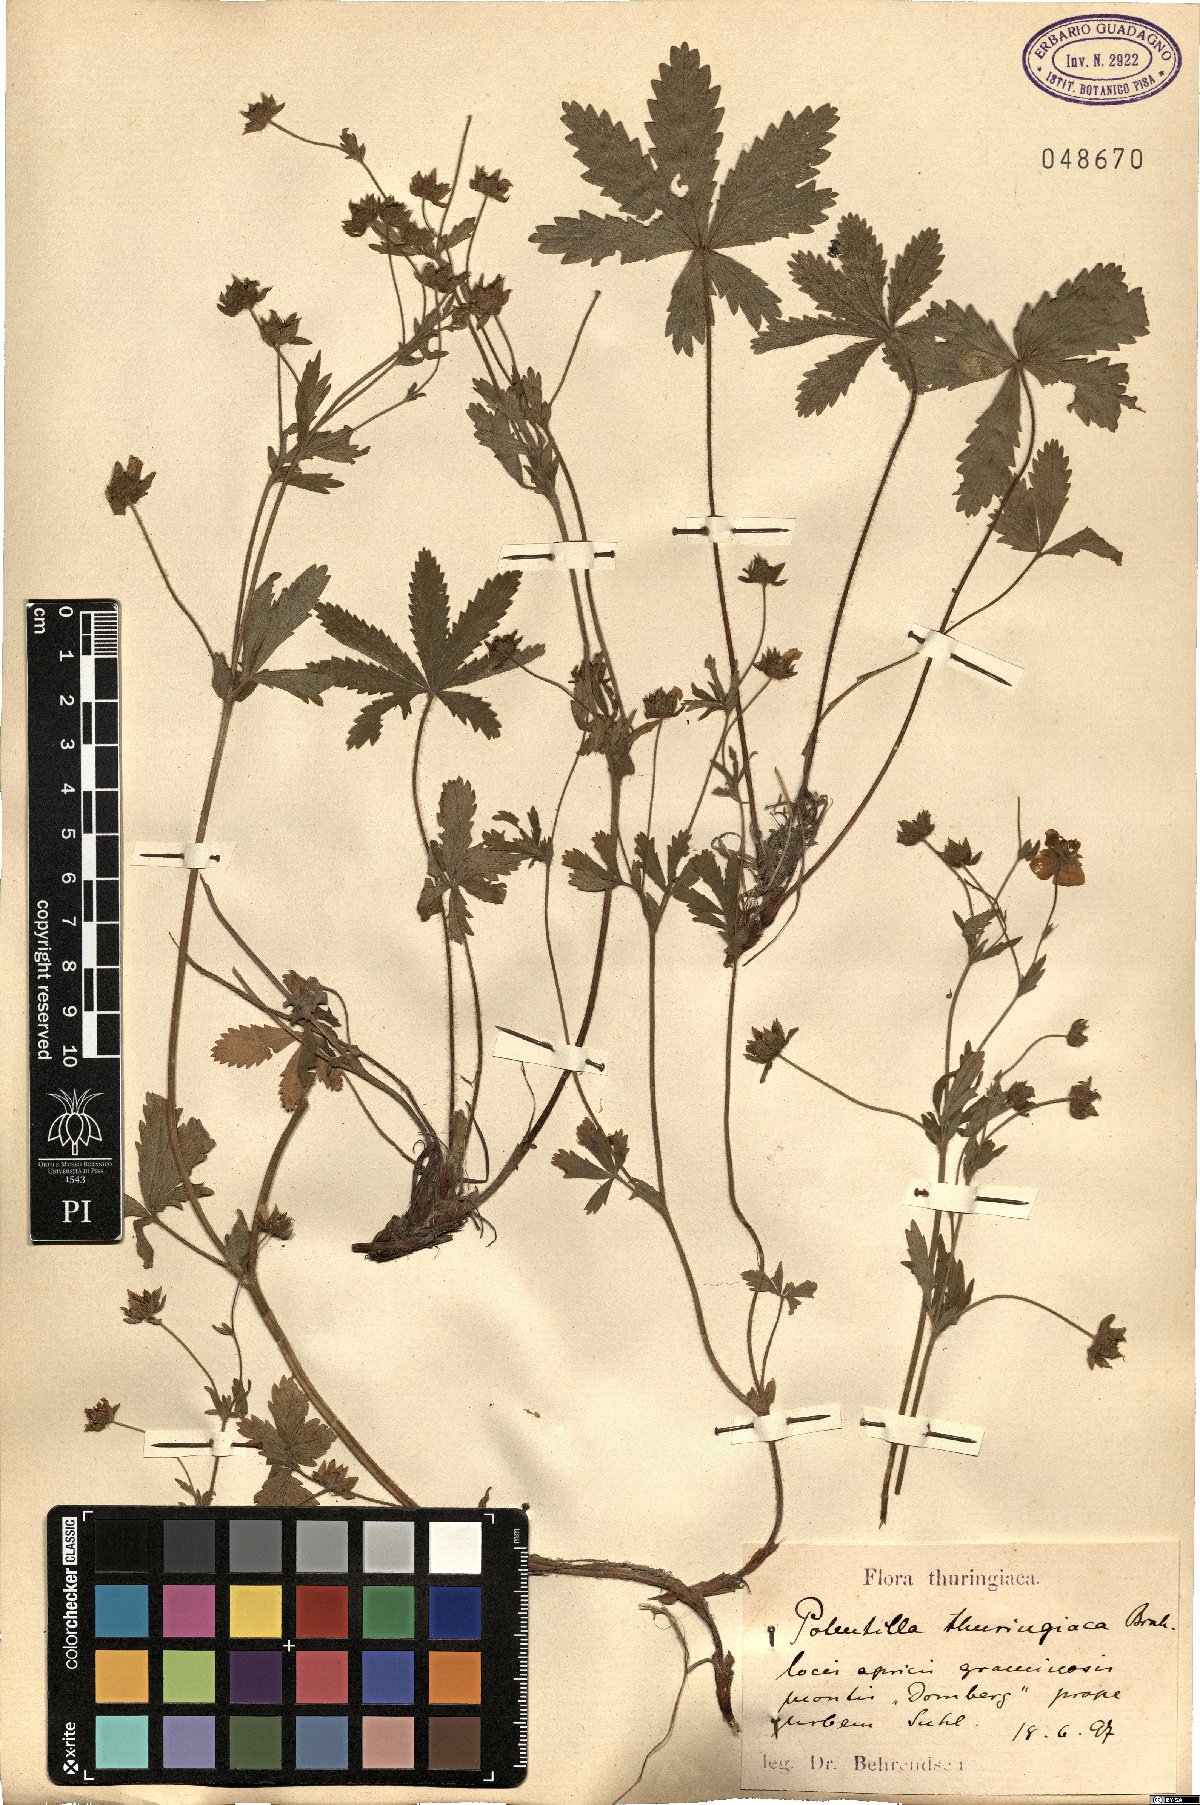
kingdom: Plantae
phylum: Tracheophyta
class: Magnoliopsida
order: Rosales
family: Rosaceae
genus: Potentilla
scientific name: Potentilla thuringiaca
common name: European cinquefoil
